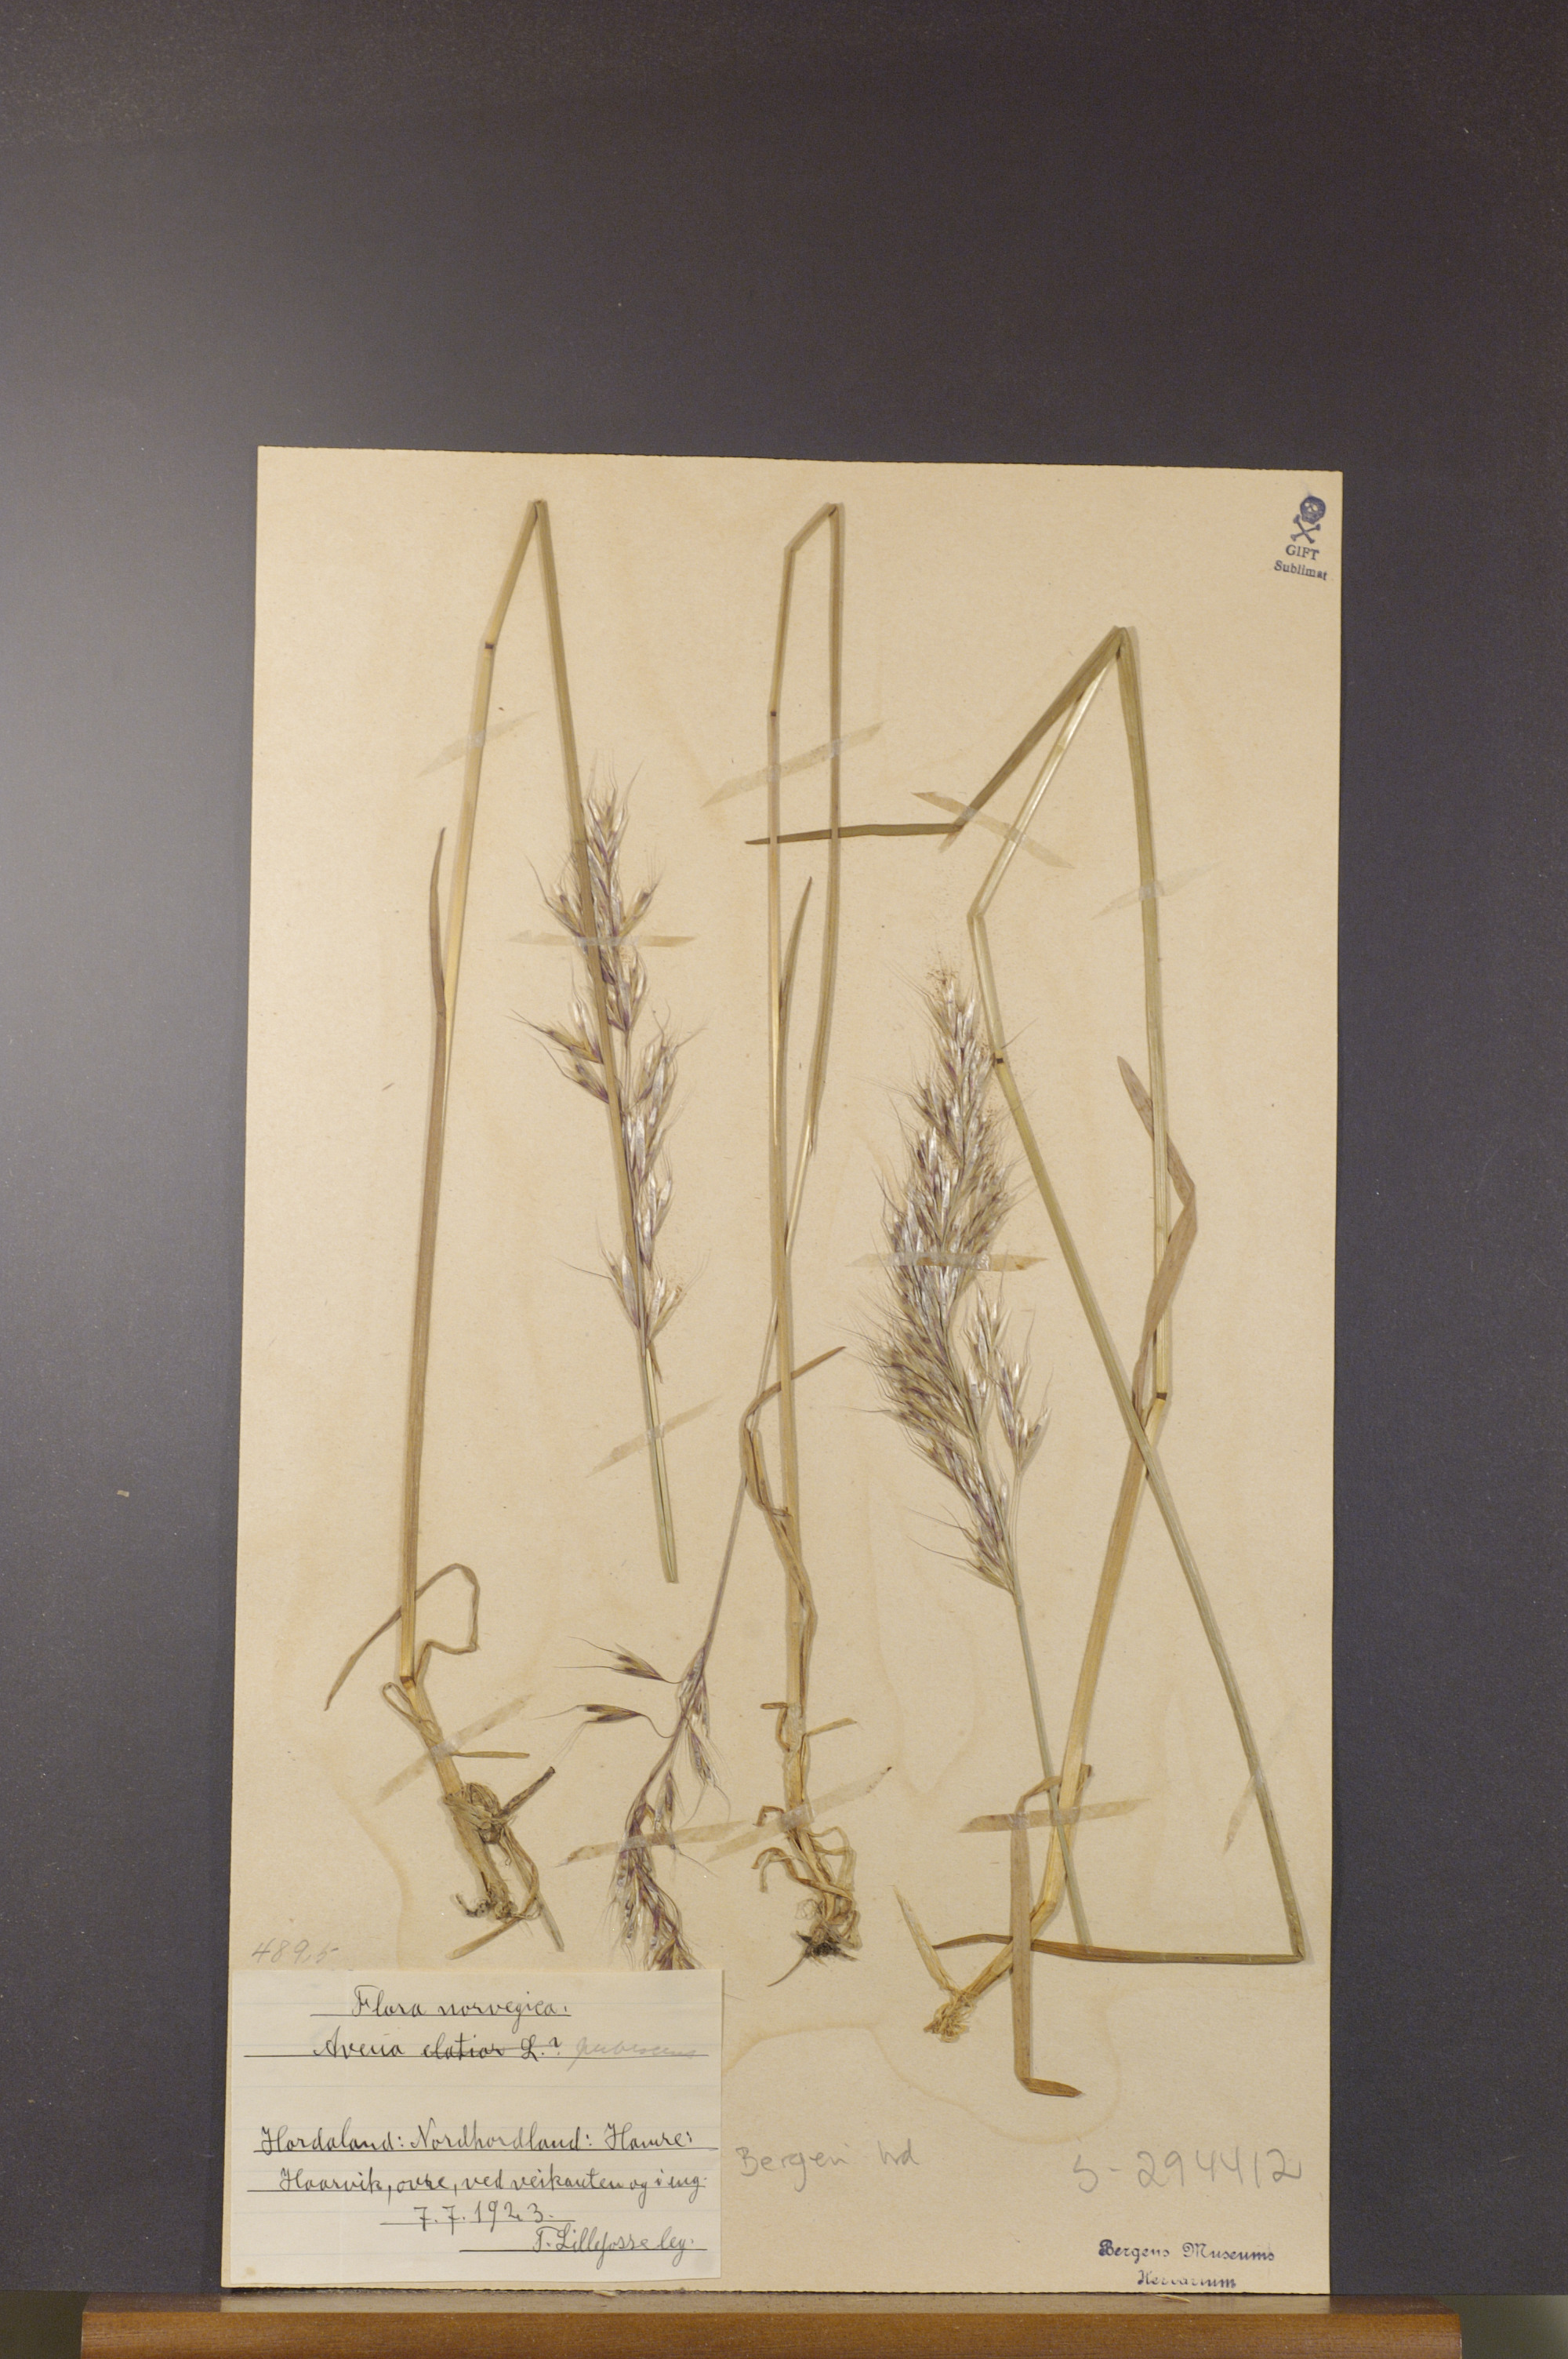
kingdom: Plantae
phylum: Tracheophyta
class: Liliopsida
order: Poales
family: Poaceae
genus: Avenula
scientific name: Avenula pubescens
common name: Downy alpine oatgrass
